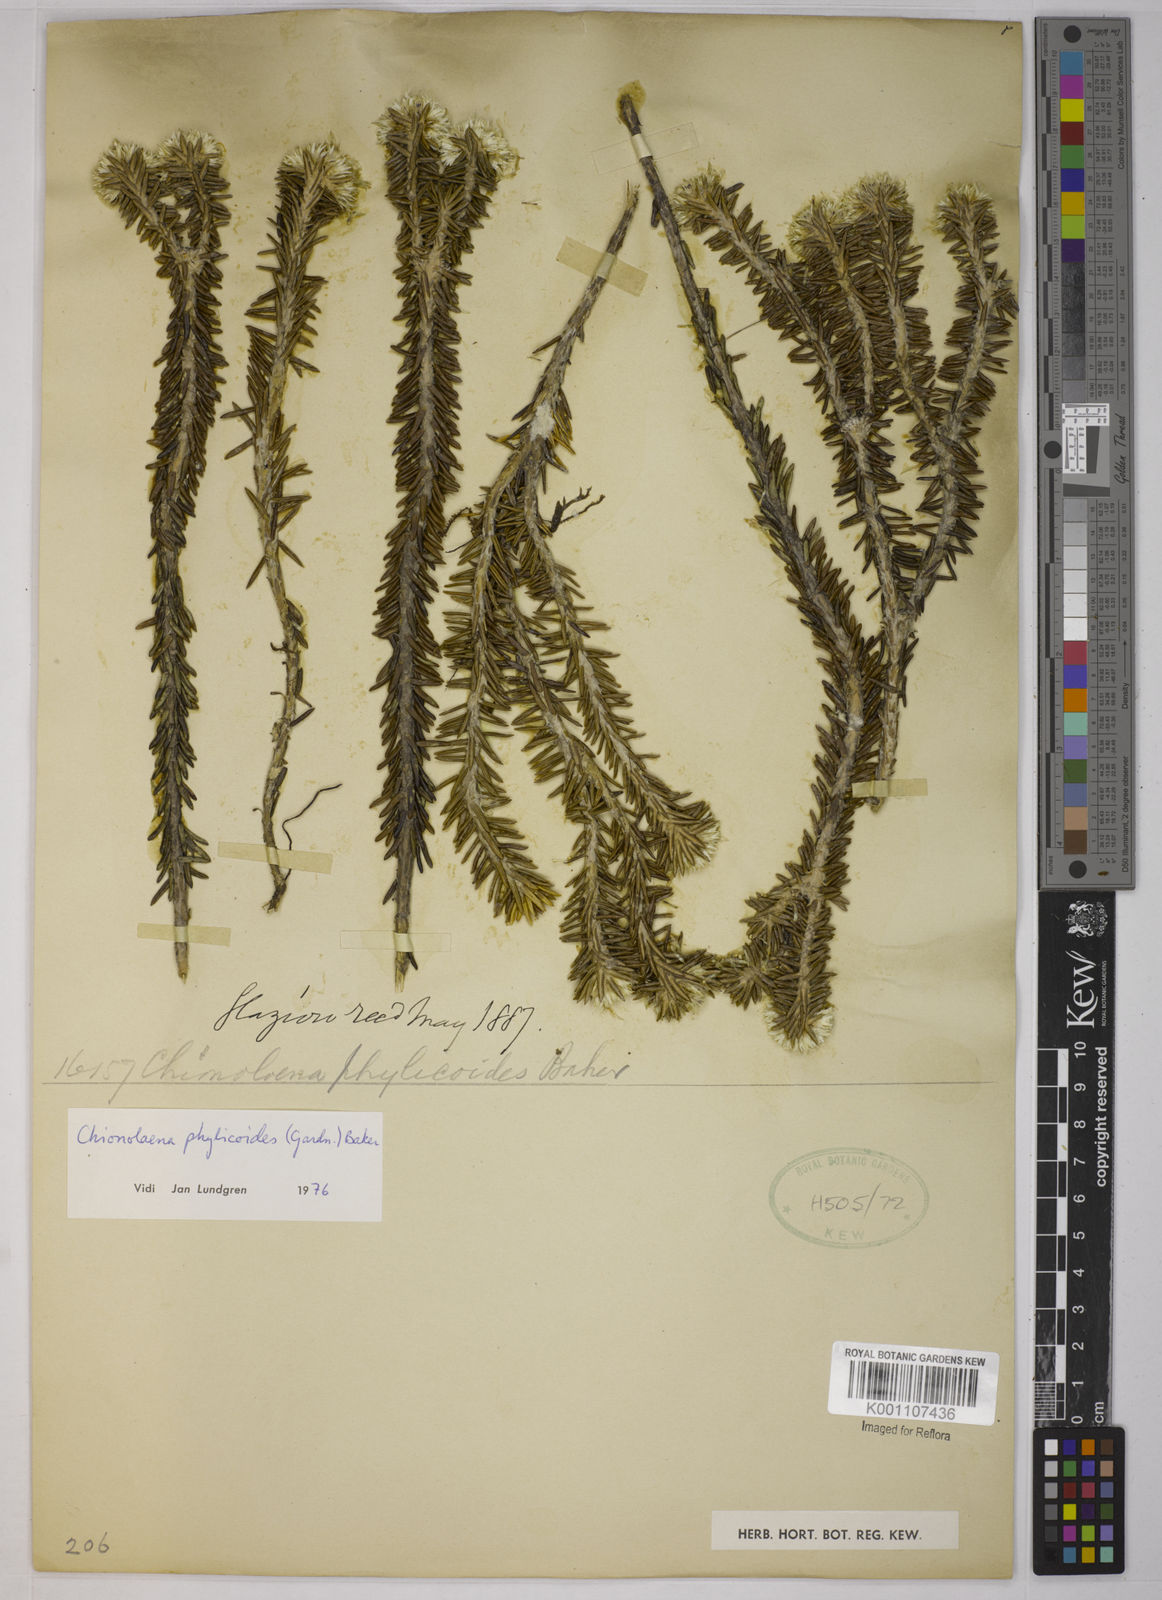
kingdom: Plantae
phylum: Tracheophyta
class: Magnoliopsida
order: Asterales
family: Asteraceae
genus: Chionolaena
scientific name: Chionolaena phylicoides
